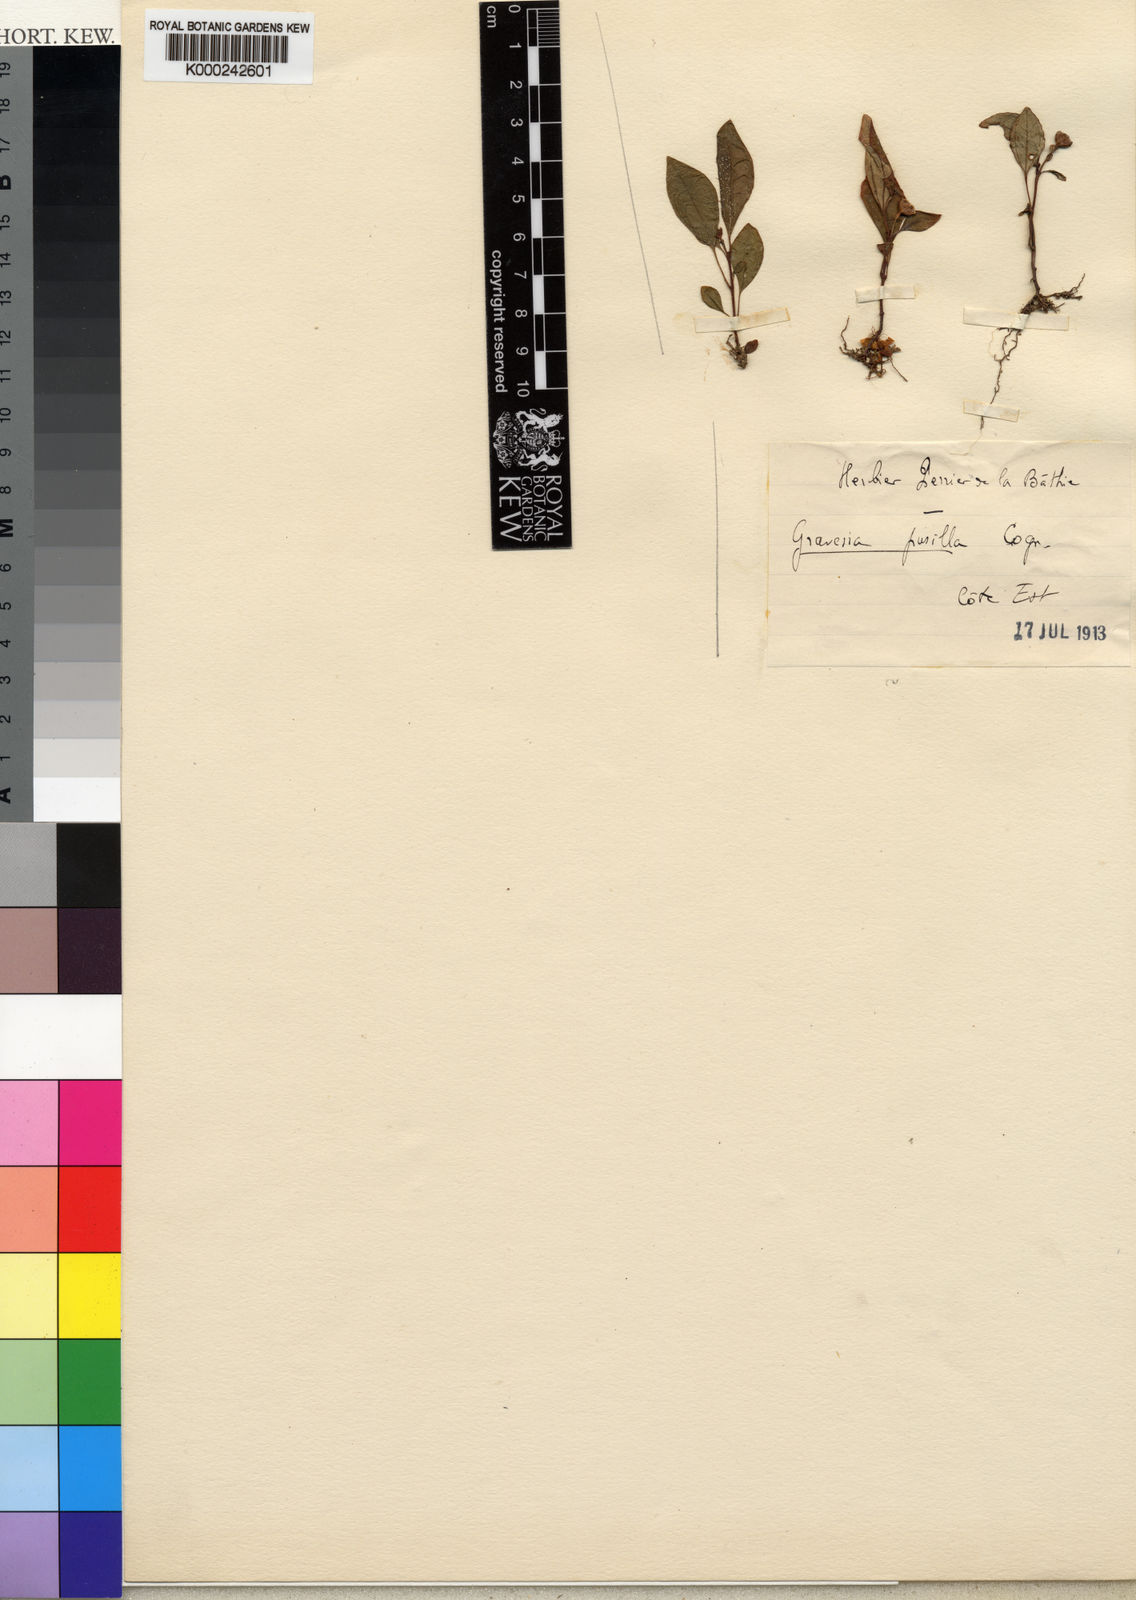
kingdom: Plantae
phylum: Tracheophyta
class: Magnoliopsida
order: Myrtales
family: Melastomataceae
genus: Gravesia
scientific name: Gravesia pusilla
